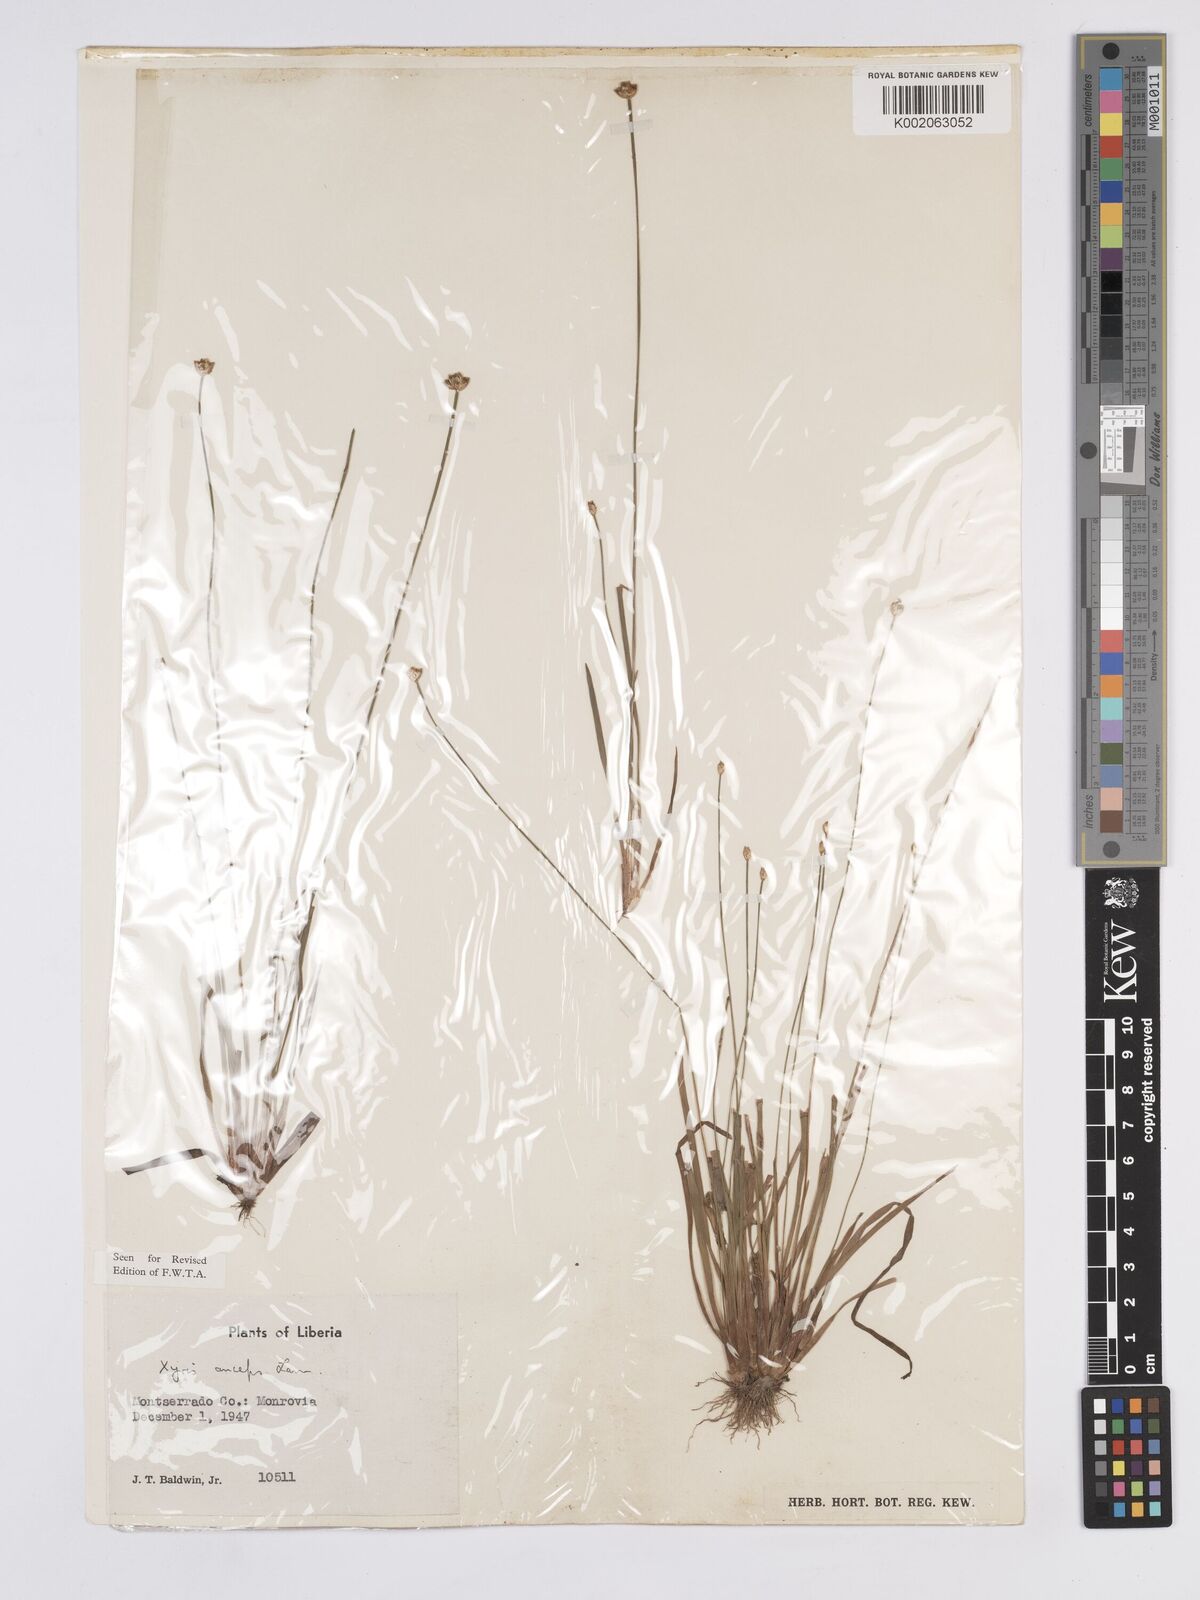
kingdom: Plantae
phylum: Tracheophyta
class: Liliopsida
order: Poales
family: Xyridaceae
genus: Xyris
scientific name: Xyris anceps
